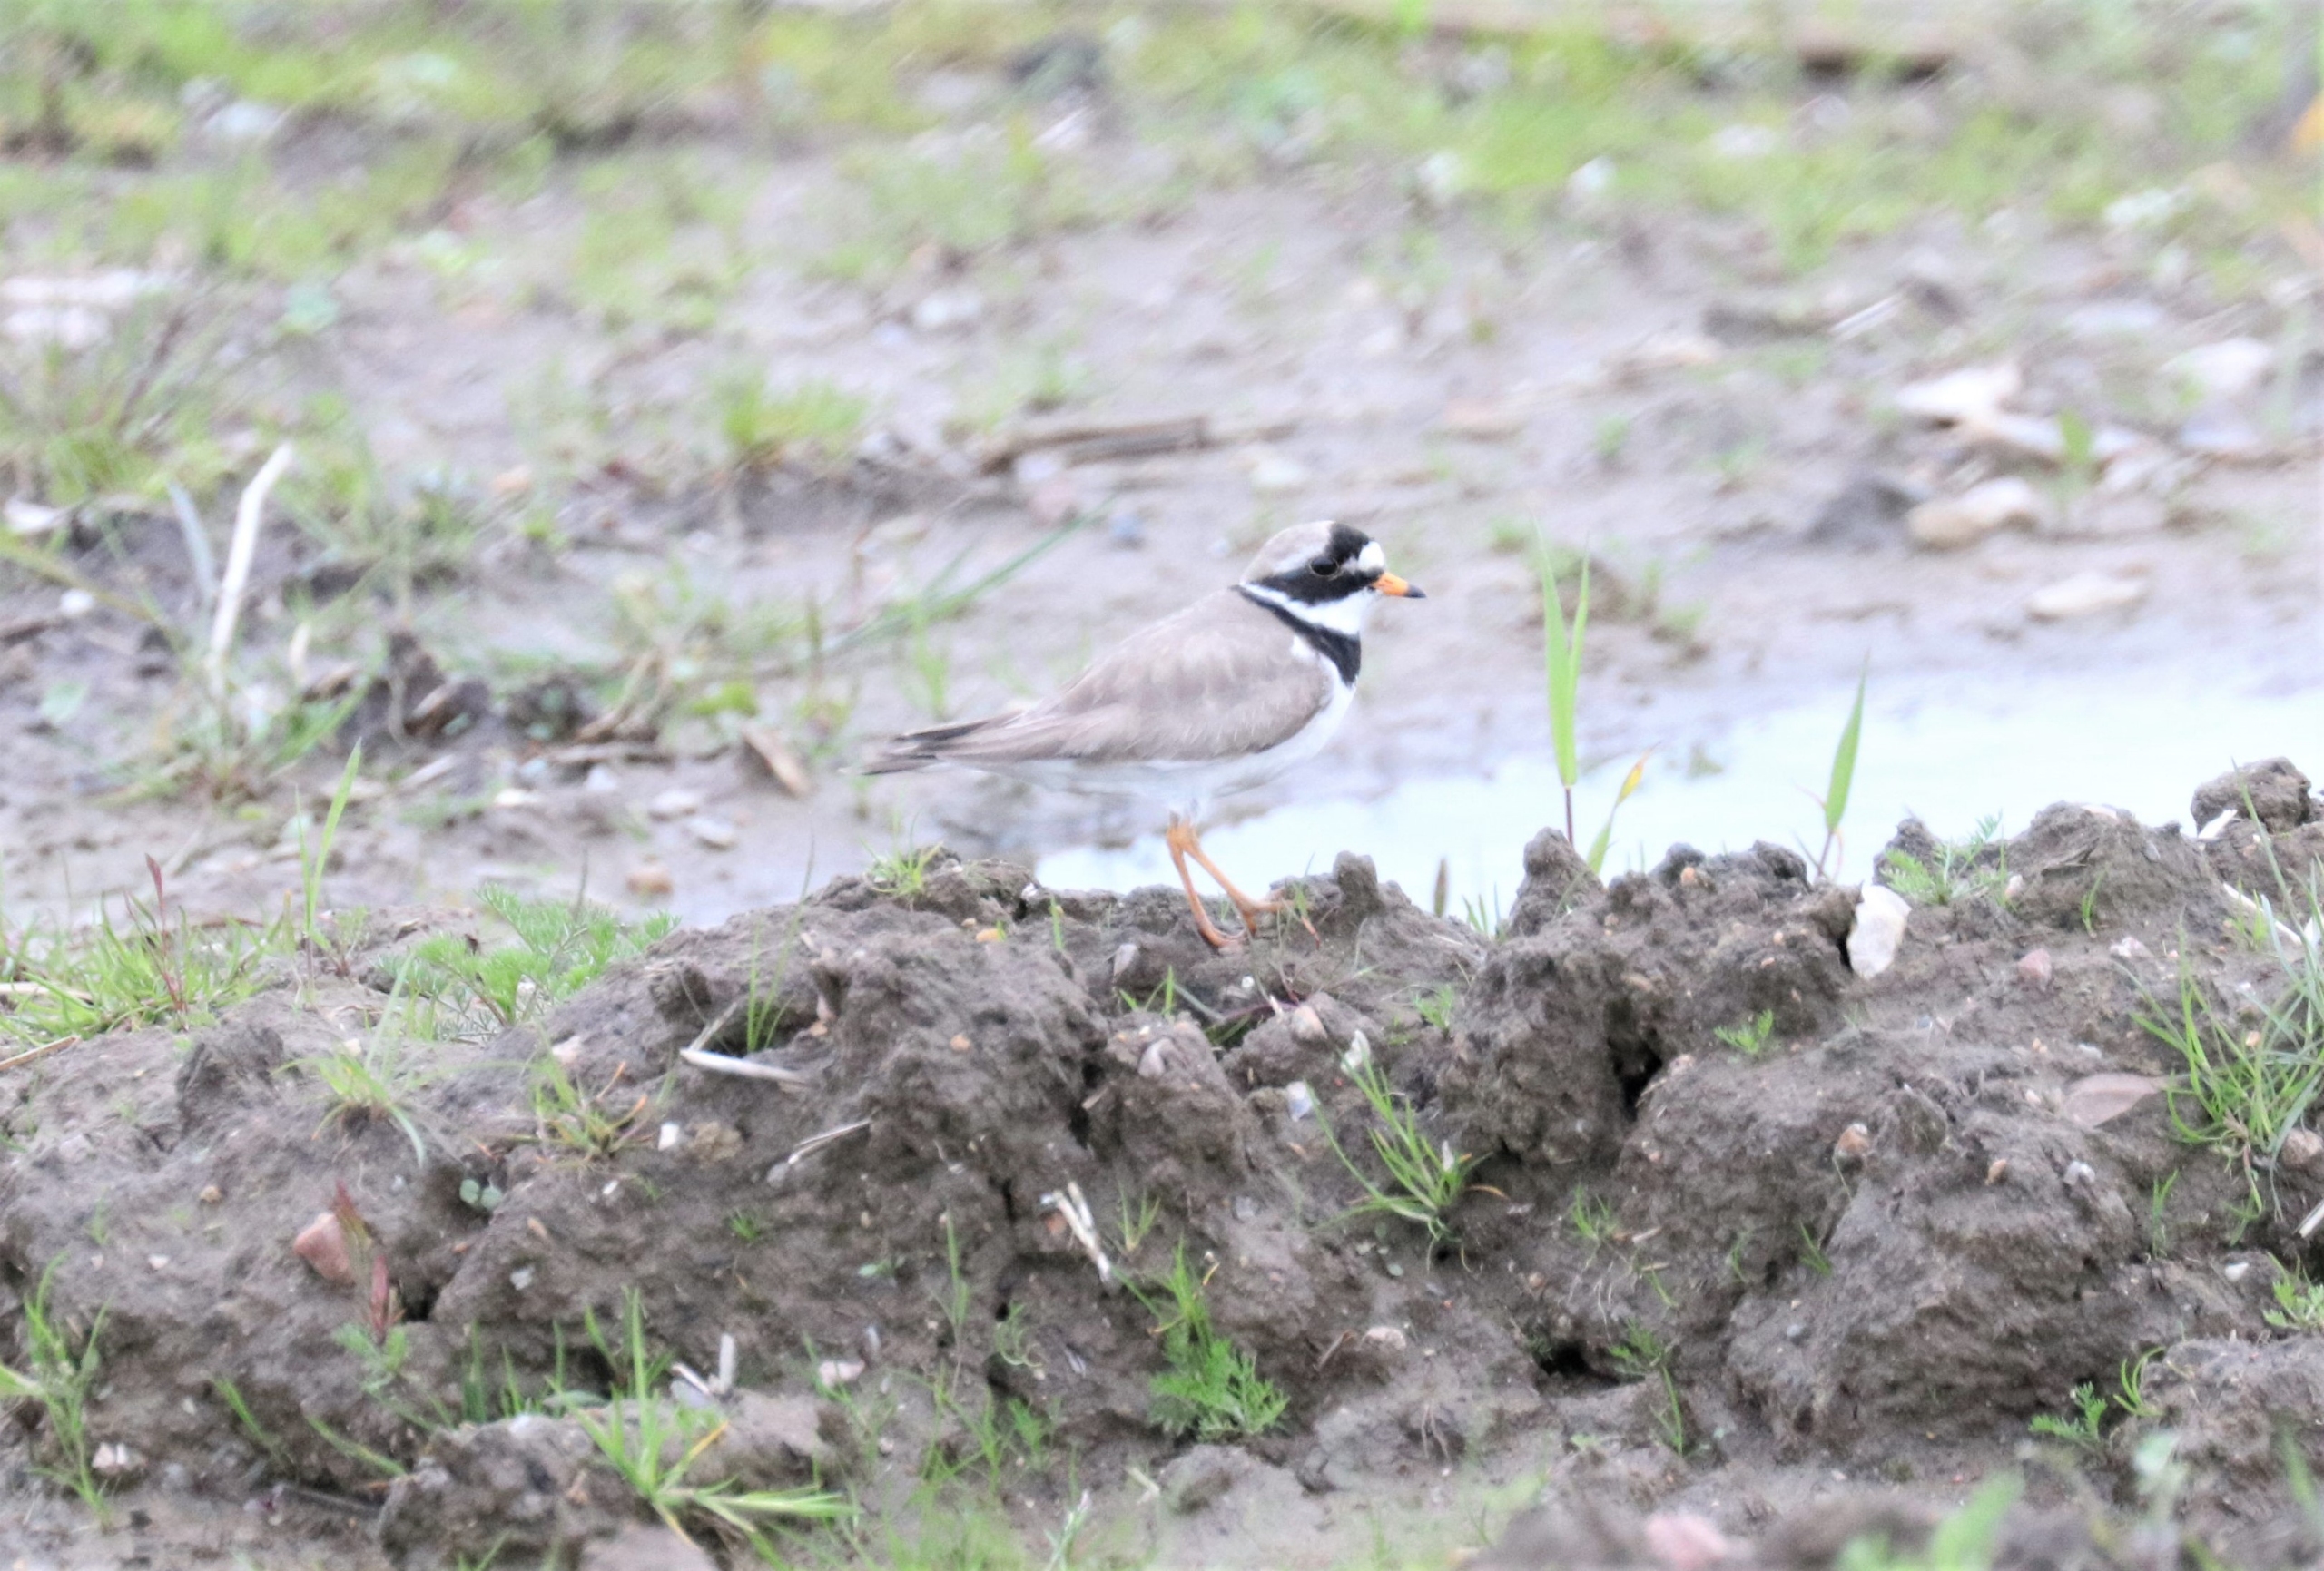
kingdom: Animalia
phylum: Chordata
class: Aves
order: Charadriiformes
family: Charadriidae
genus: Charadrius
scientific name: Charadrius hiaticula
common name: Stor præstekrave
